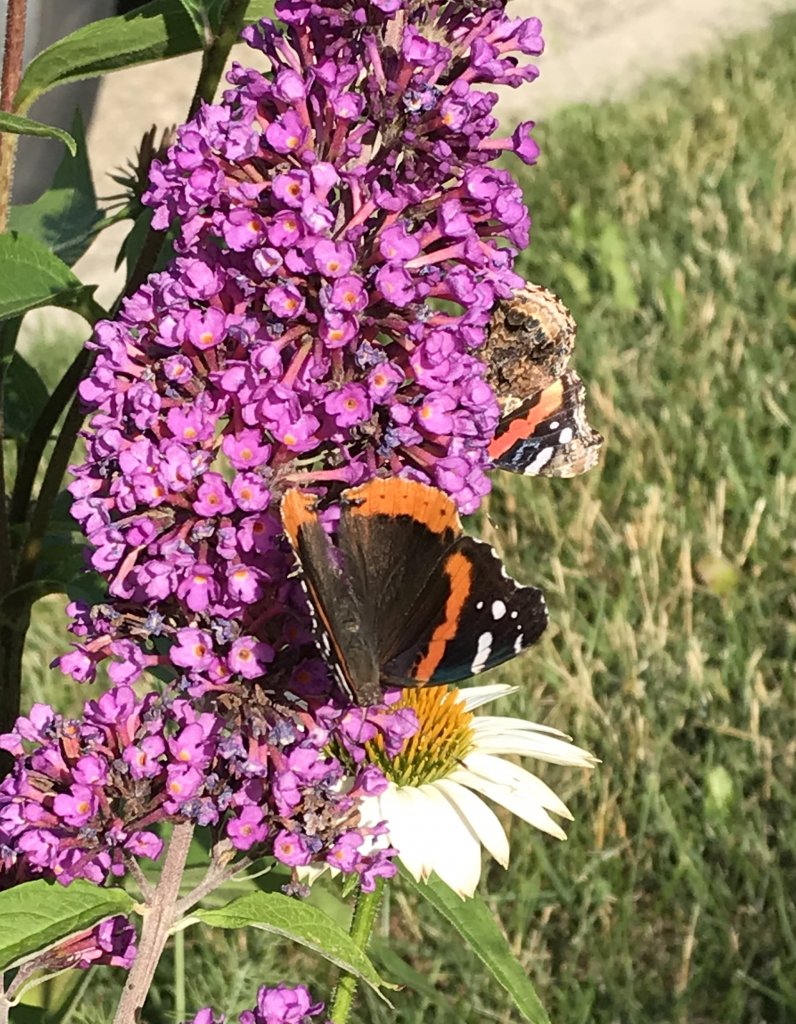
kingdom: Animalia
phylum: Arthropoda
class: Insecta
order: Lepidoptera
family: Nymphalidae
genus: Vanessa
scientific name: Vanessa atalanta
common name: Red Admiral
